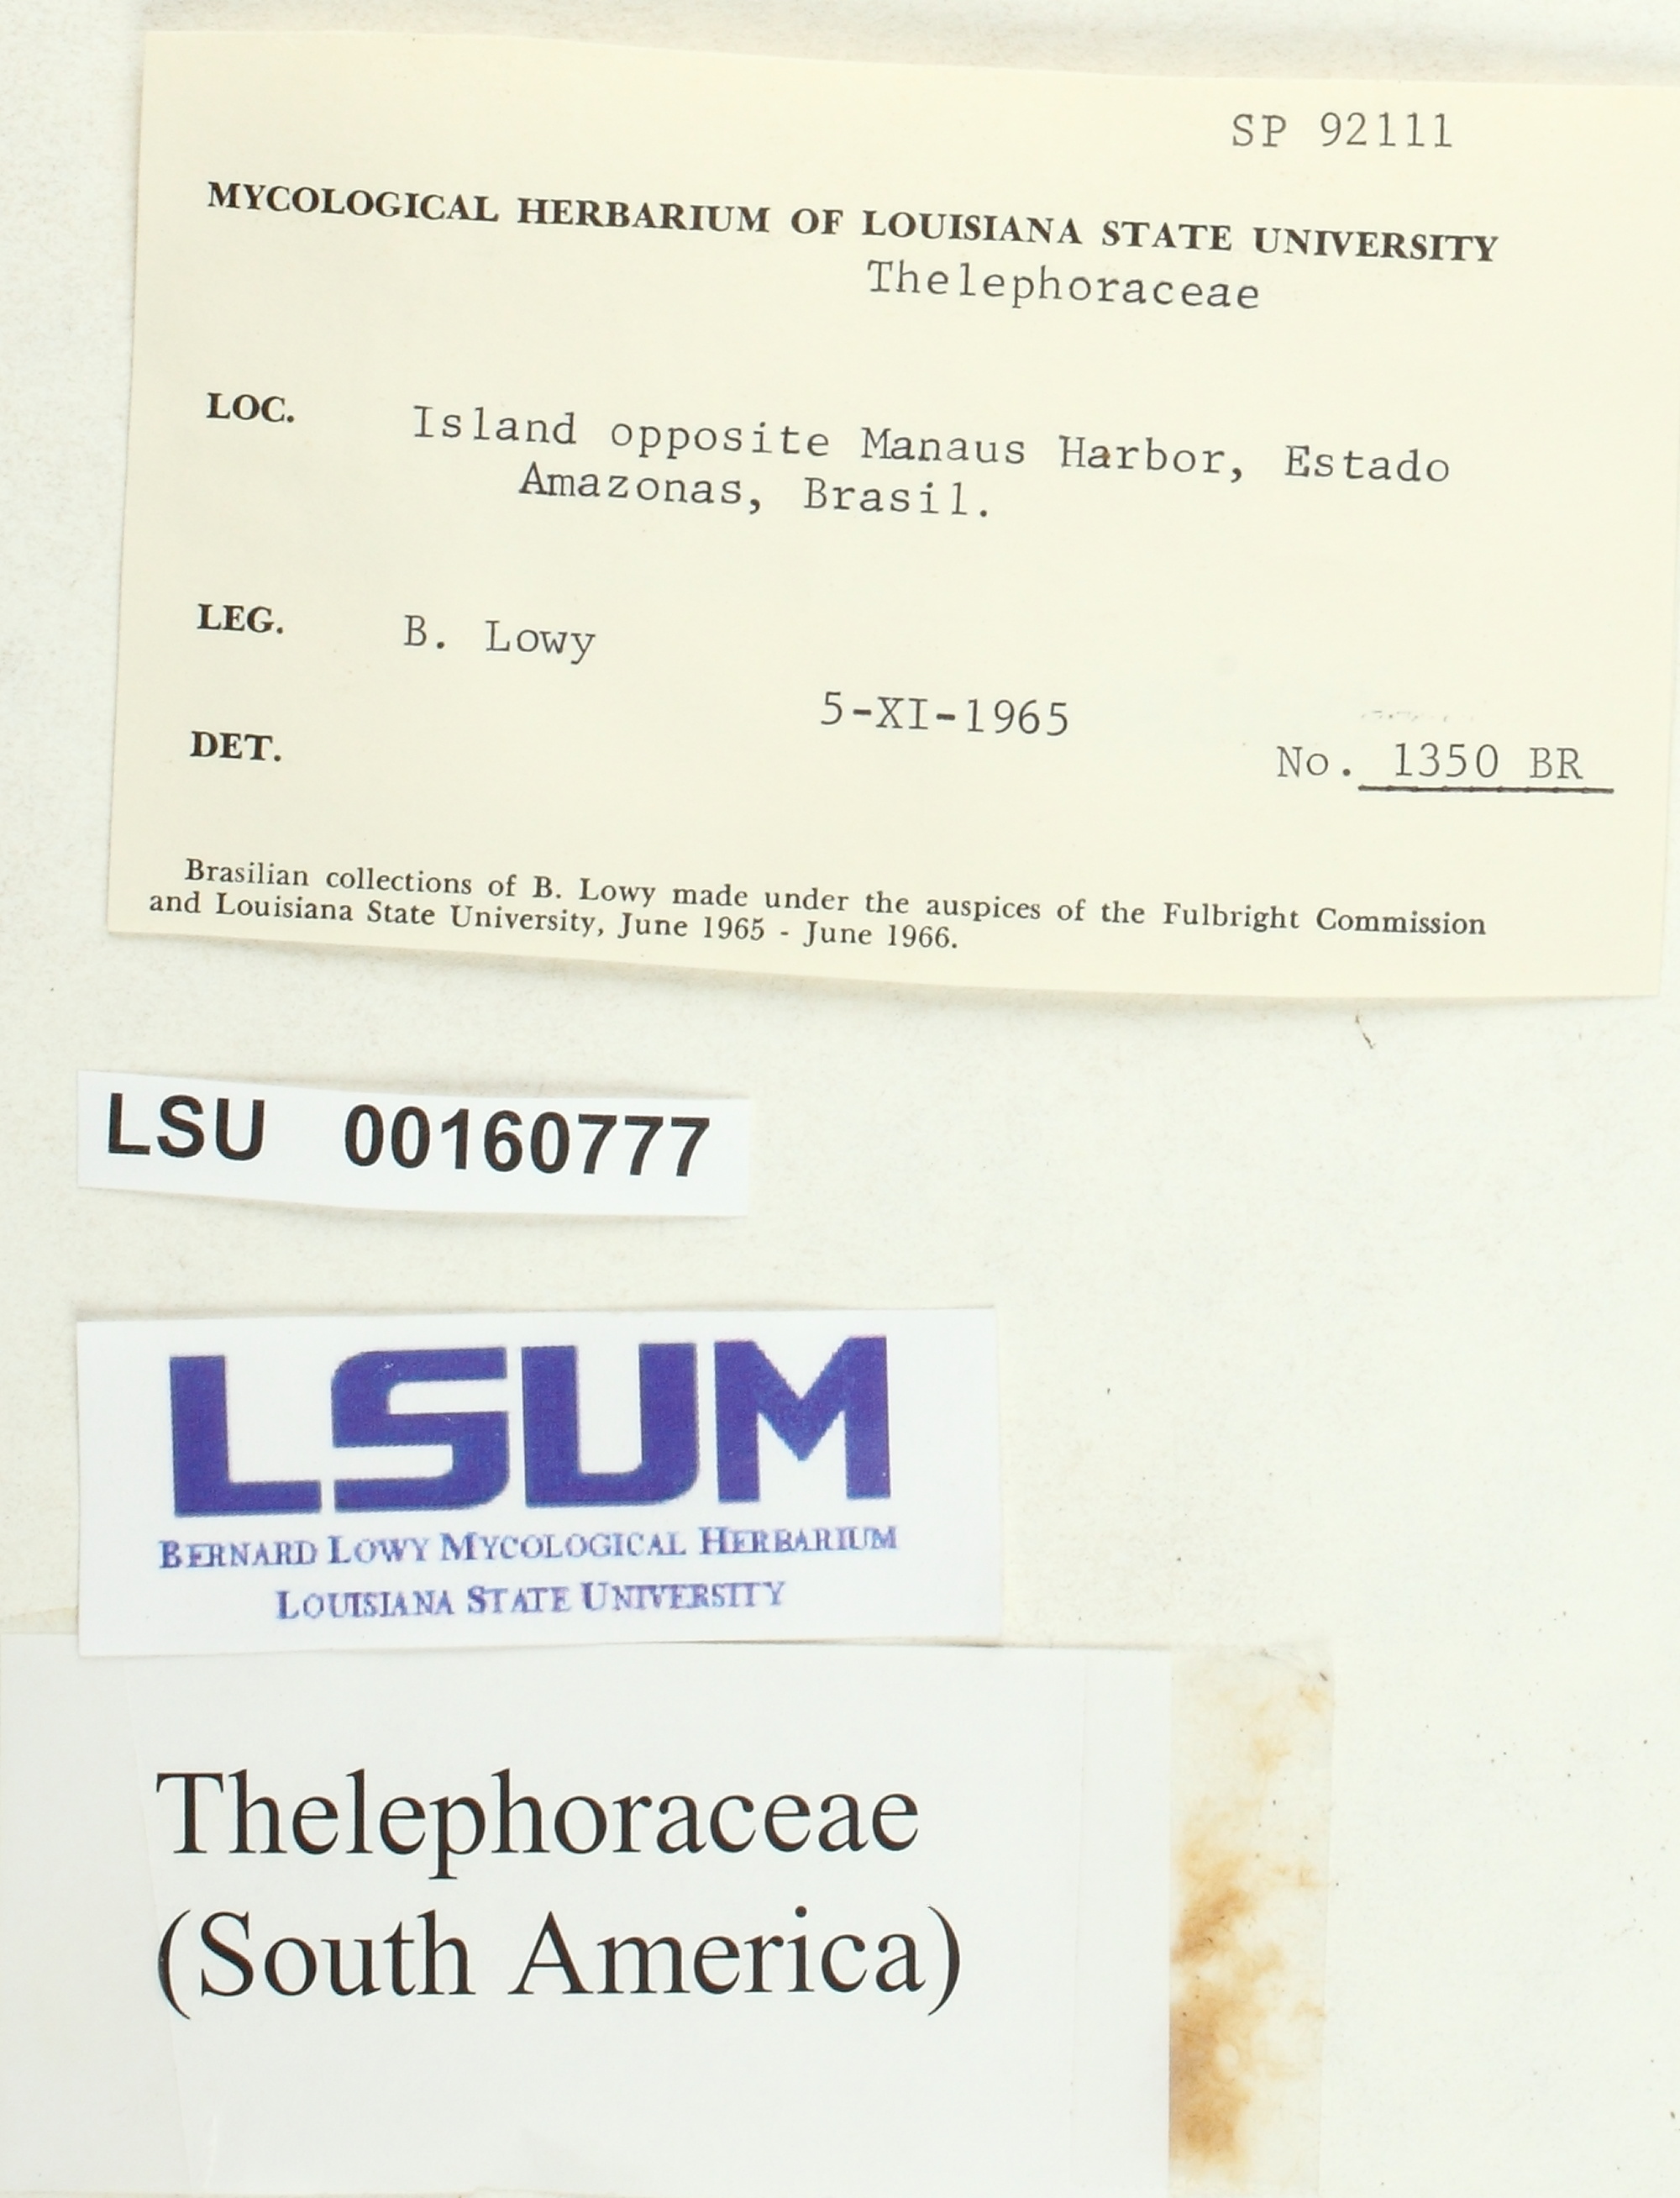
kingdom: Fungi
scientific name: Fungi
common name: Fungi
